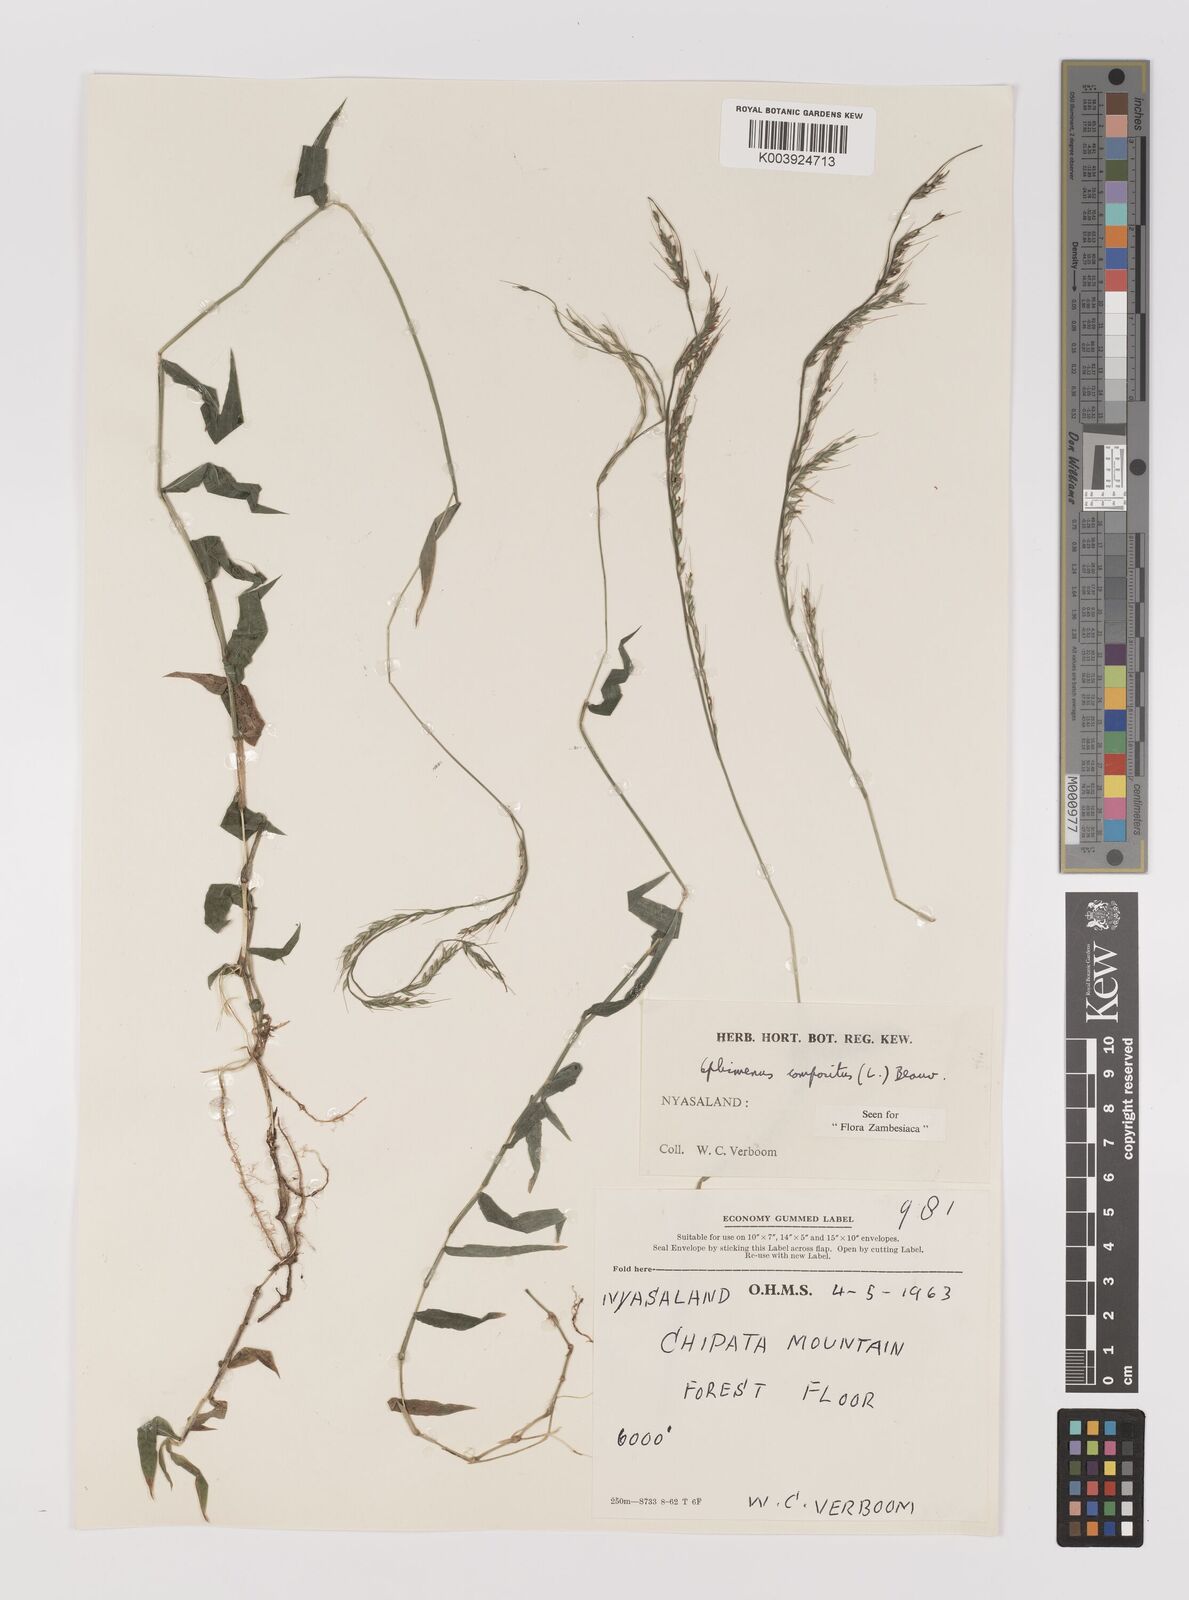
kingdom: Plantae
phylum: Tracheophyta
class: Liliopsida
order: Poales
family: Poaceae
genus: Oplismenus
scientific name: Oplismenus compositus
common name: Running mountain grass
